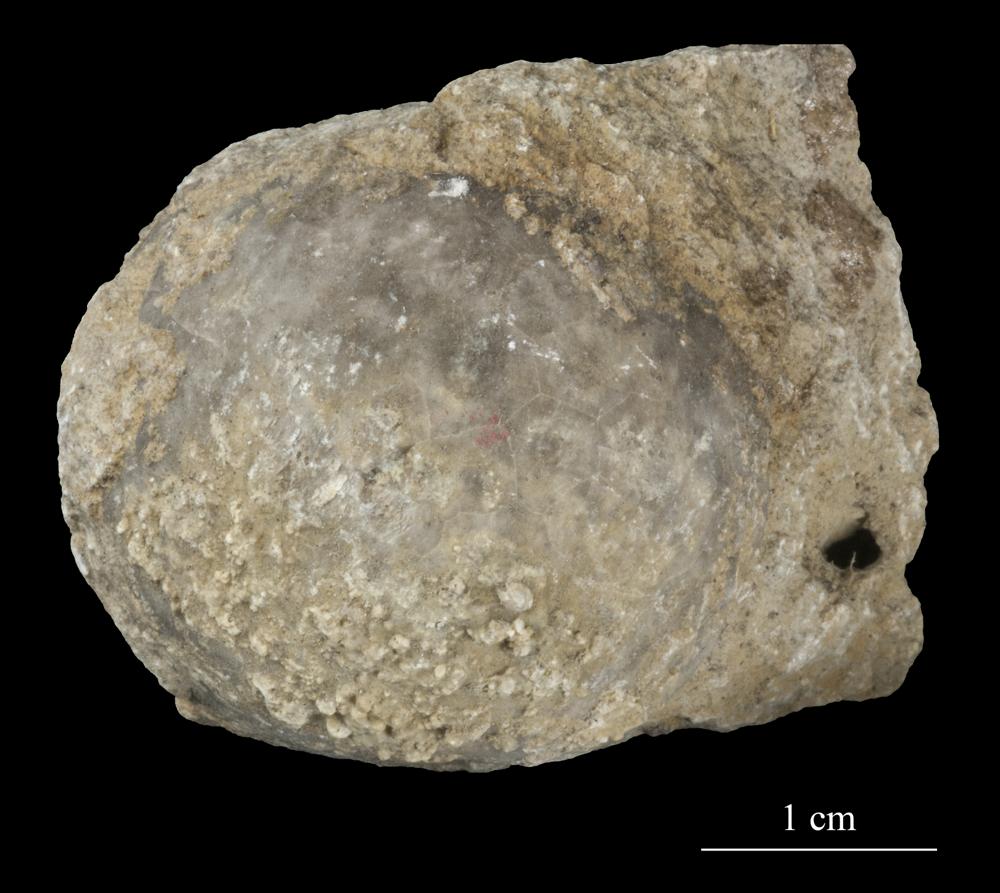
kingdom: Animalia
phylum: Echinodermata
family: Echinosphaeritidae
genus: Echinosphaerites
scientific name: Echinosphaerites Echinus aurantium
